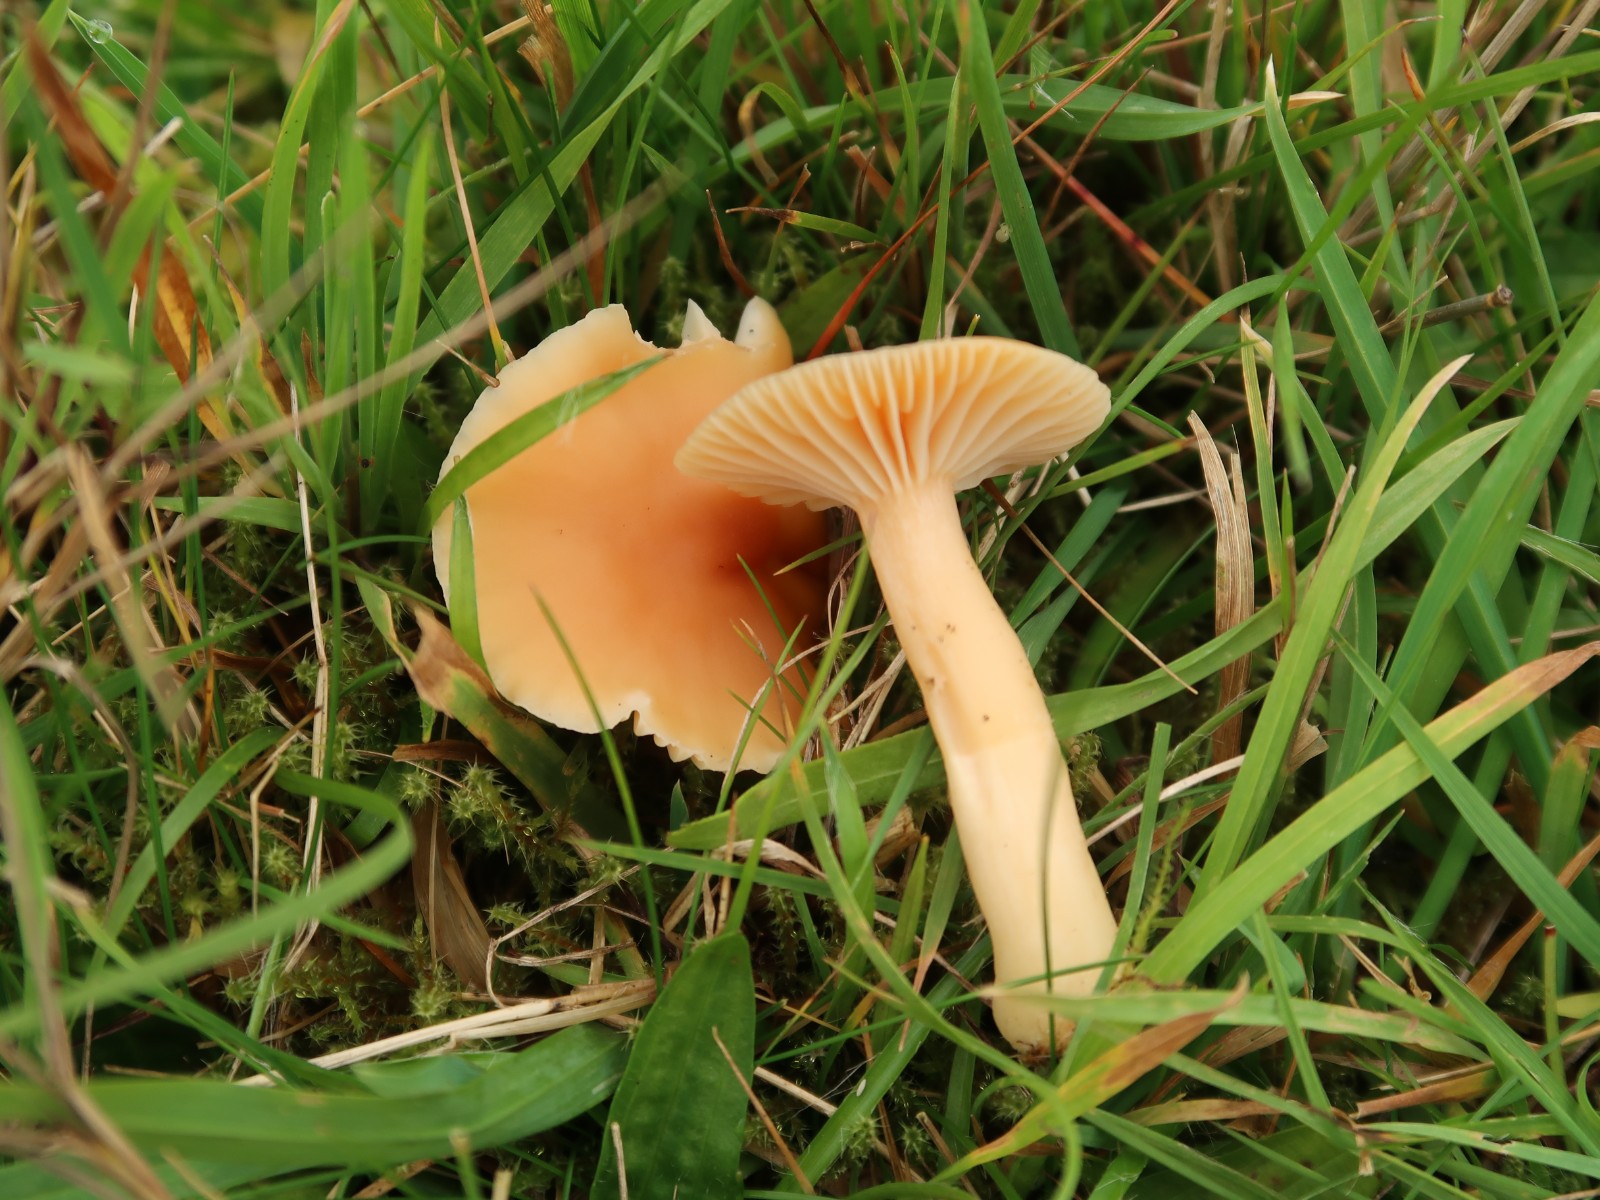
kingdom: Fungi
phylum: Basidiomycota
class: Agaricomycetes
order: Agaricales
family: Hygrophoraceae
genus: Cuphophyllus
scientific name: Cuphophyllus pratensis
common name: eng-vokshat
